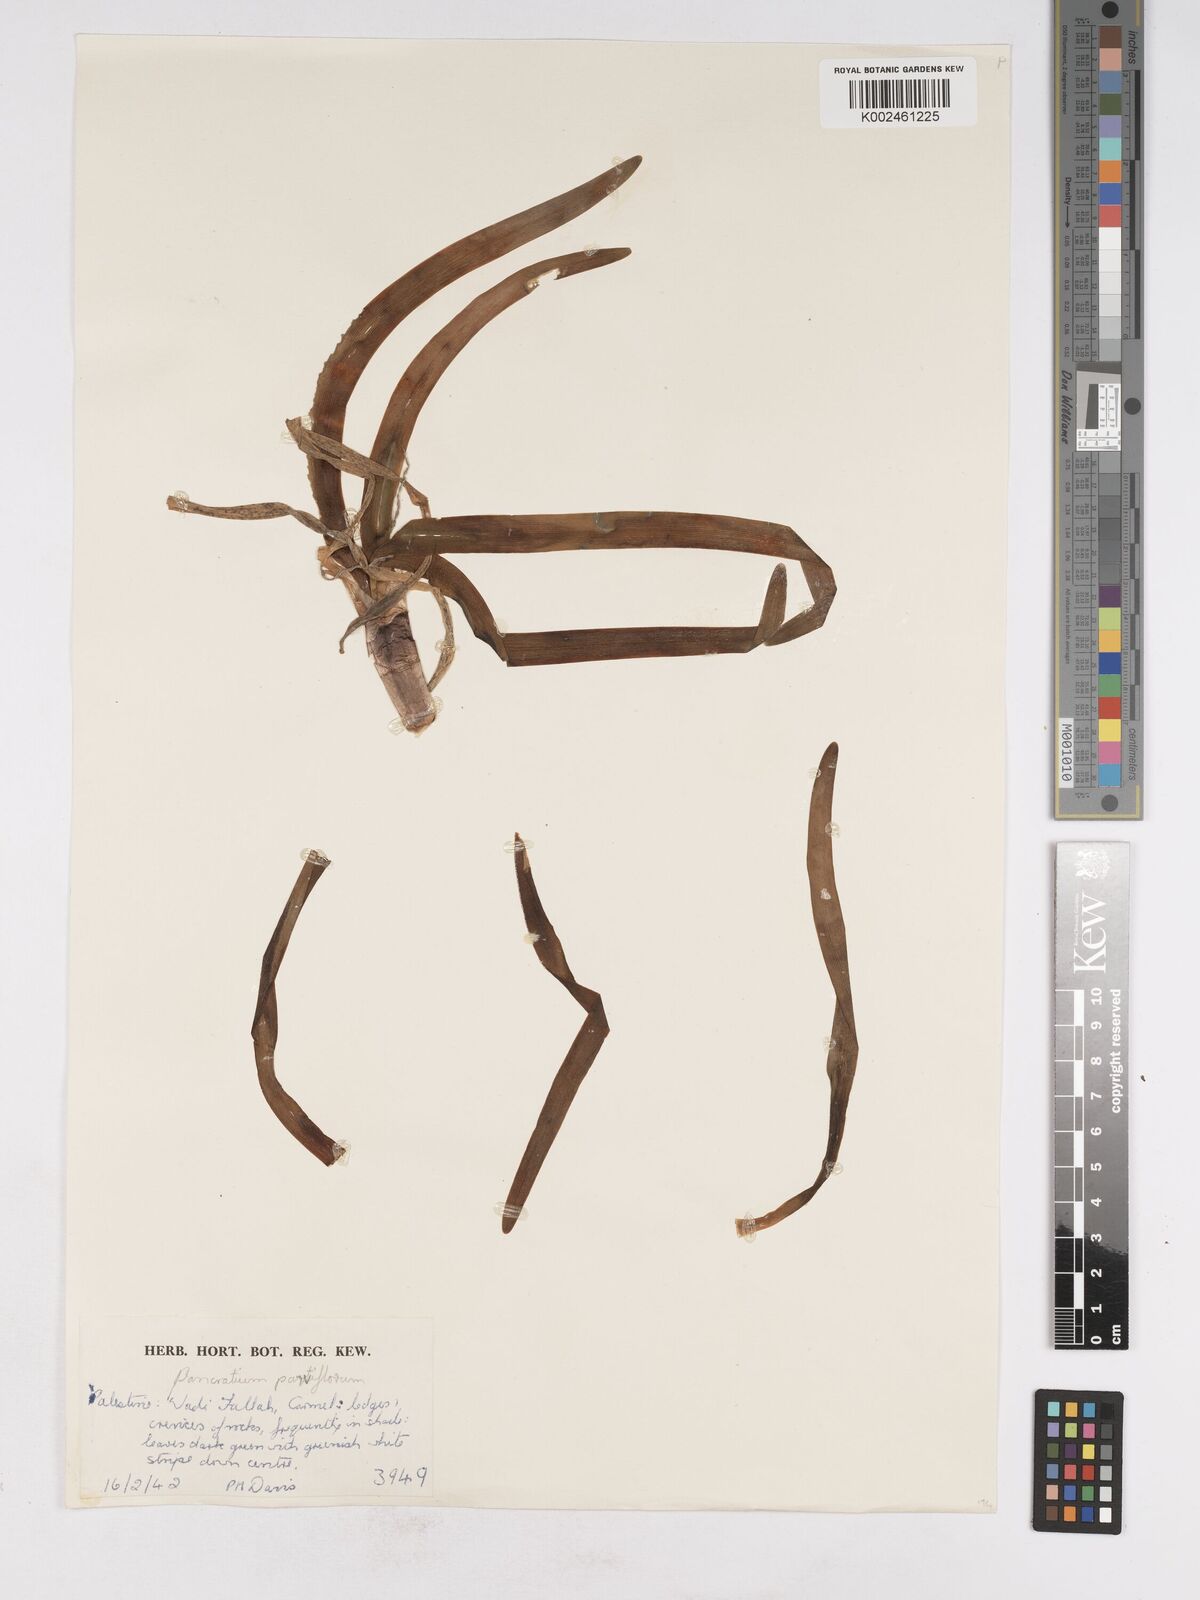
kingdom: Plantae
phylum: Tracheophyta
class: Liliopsida
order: Asparagales
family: Amaryllidaceae
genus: Vagaria
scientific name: Vagaria parviflora
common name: Small-flowered pancratium
